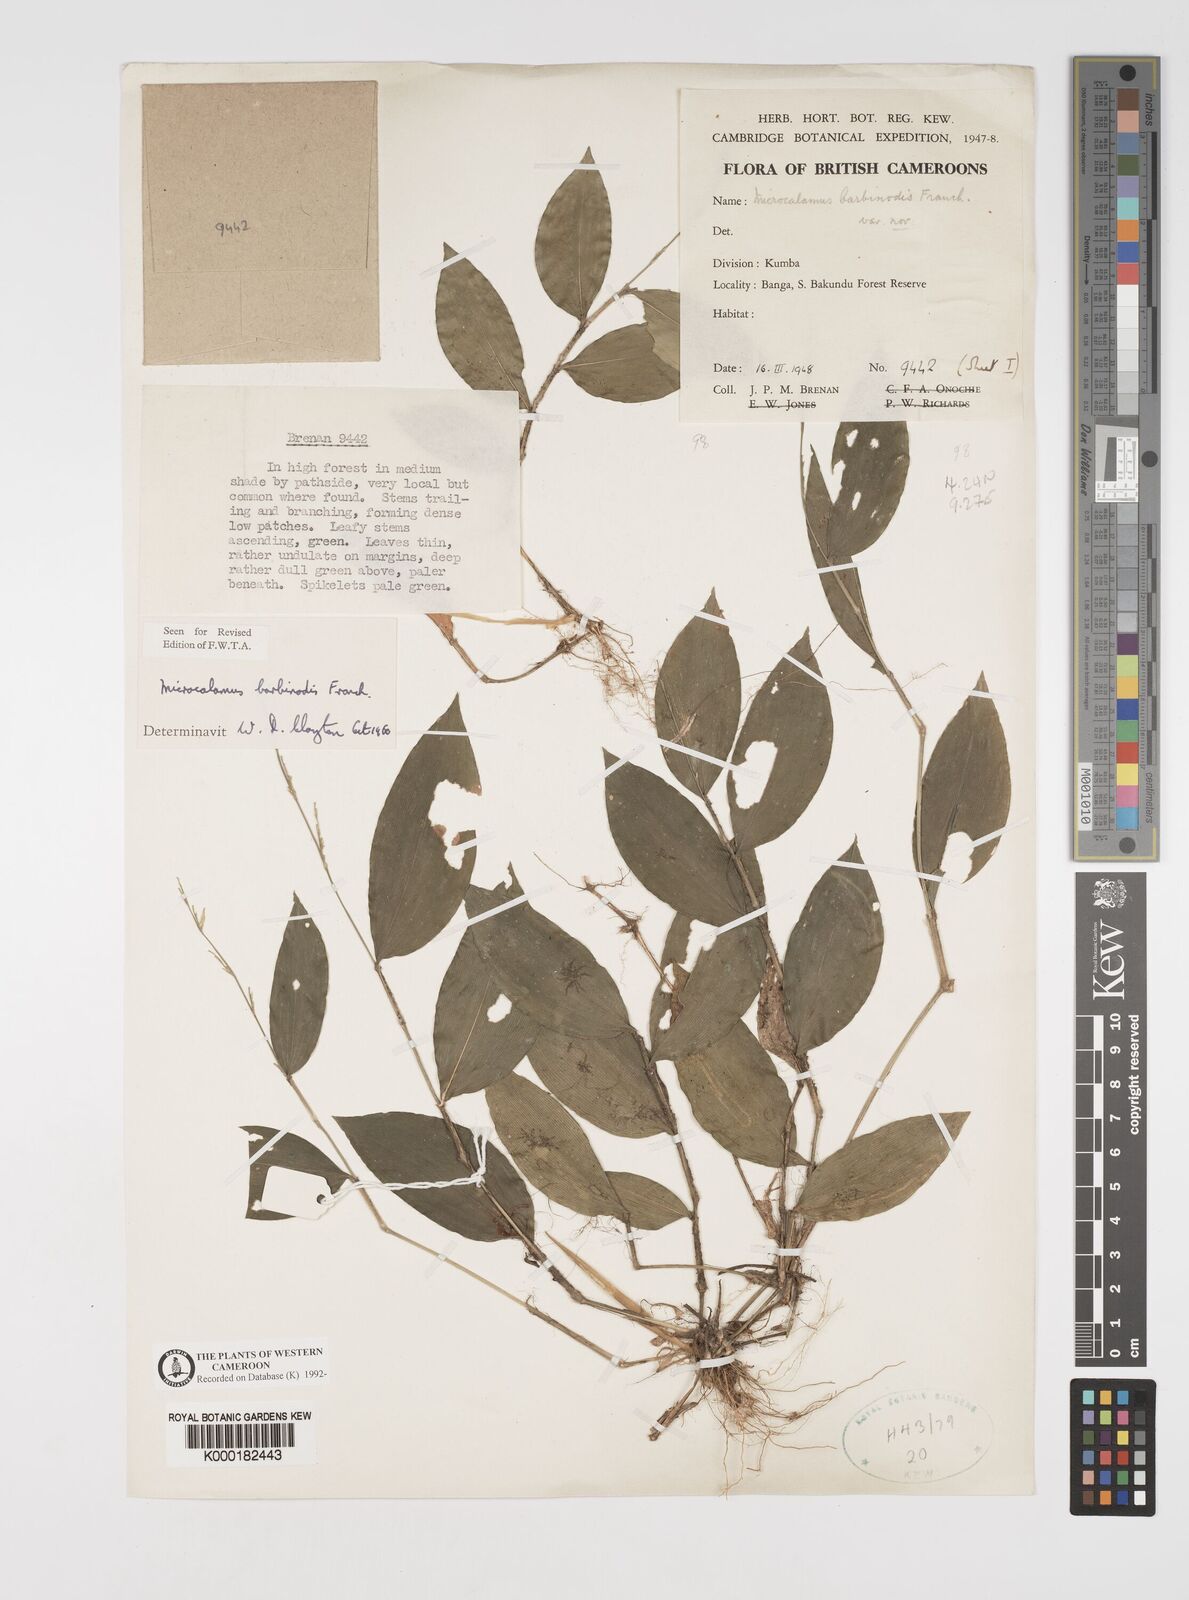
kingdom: Plantae
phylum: Tracheophyta
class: Liliopsida
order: Poales
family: Poaceae
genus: Microcalamus
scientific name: Microcalamus barbinodis
